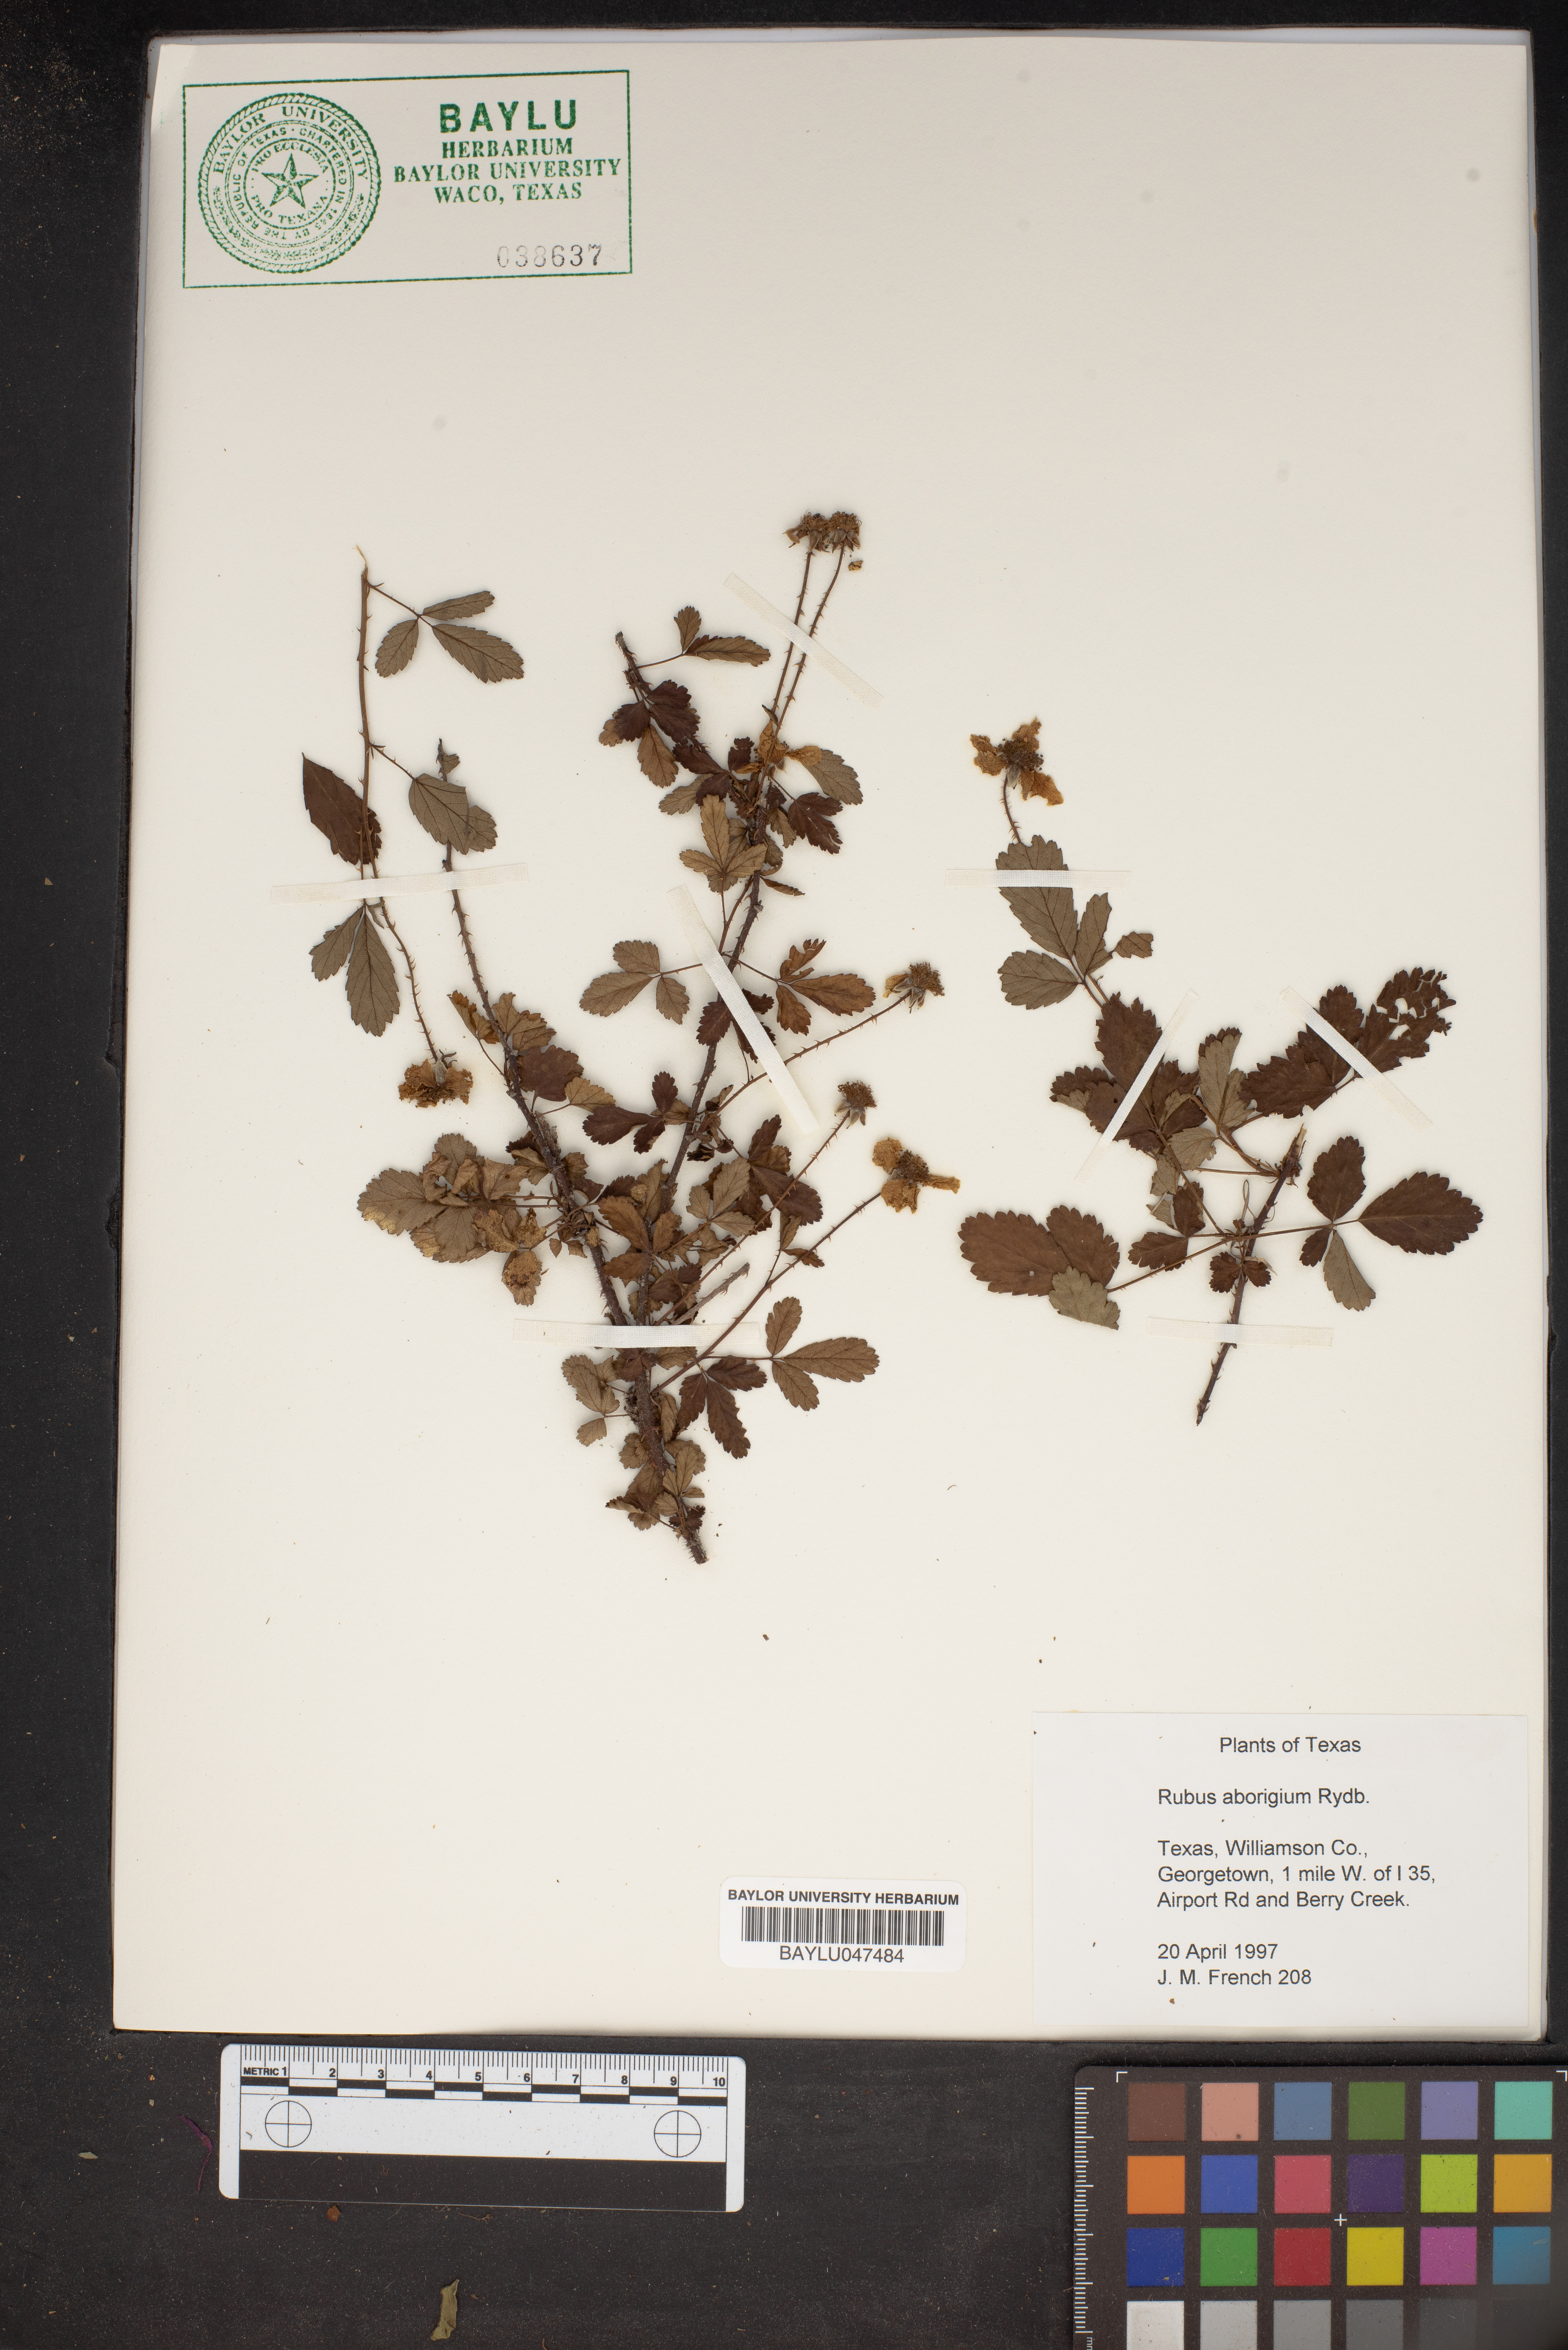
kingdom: Plantae
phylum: Tracheophyta
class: Magnoliopsida
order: Rosales
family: Rosaceae
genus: Rubus
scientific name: Rubus aboriginum
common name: Mayes dewberry
